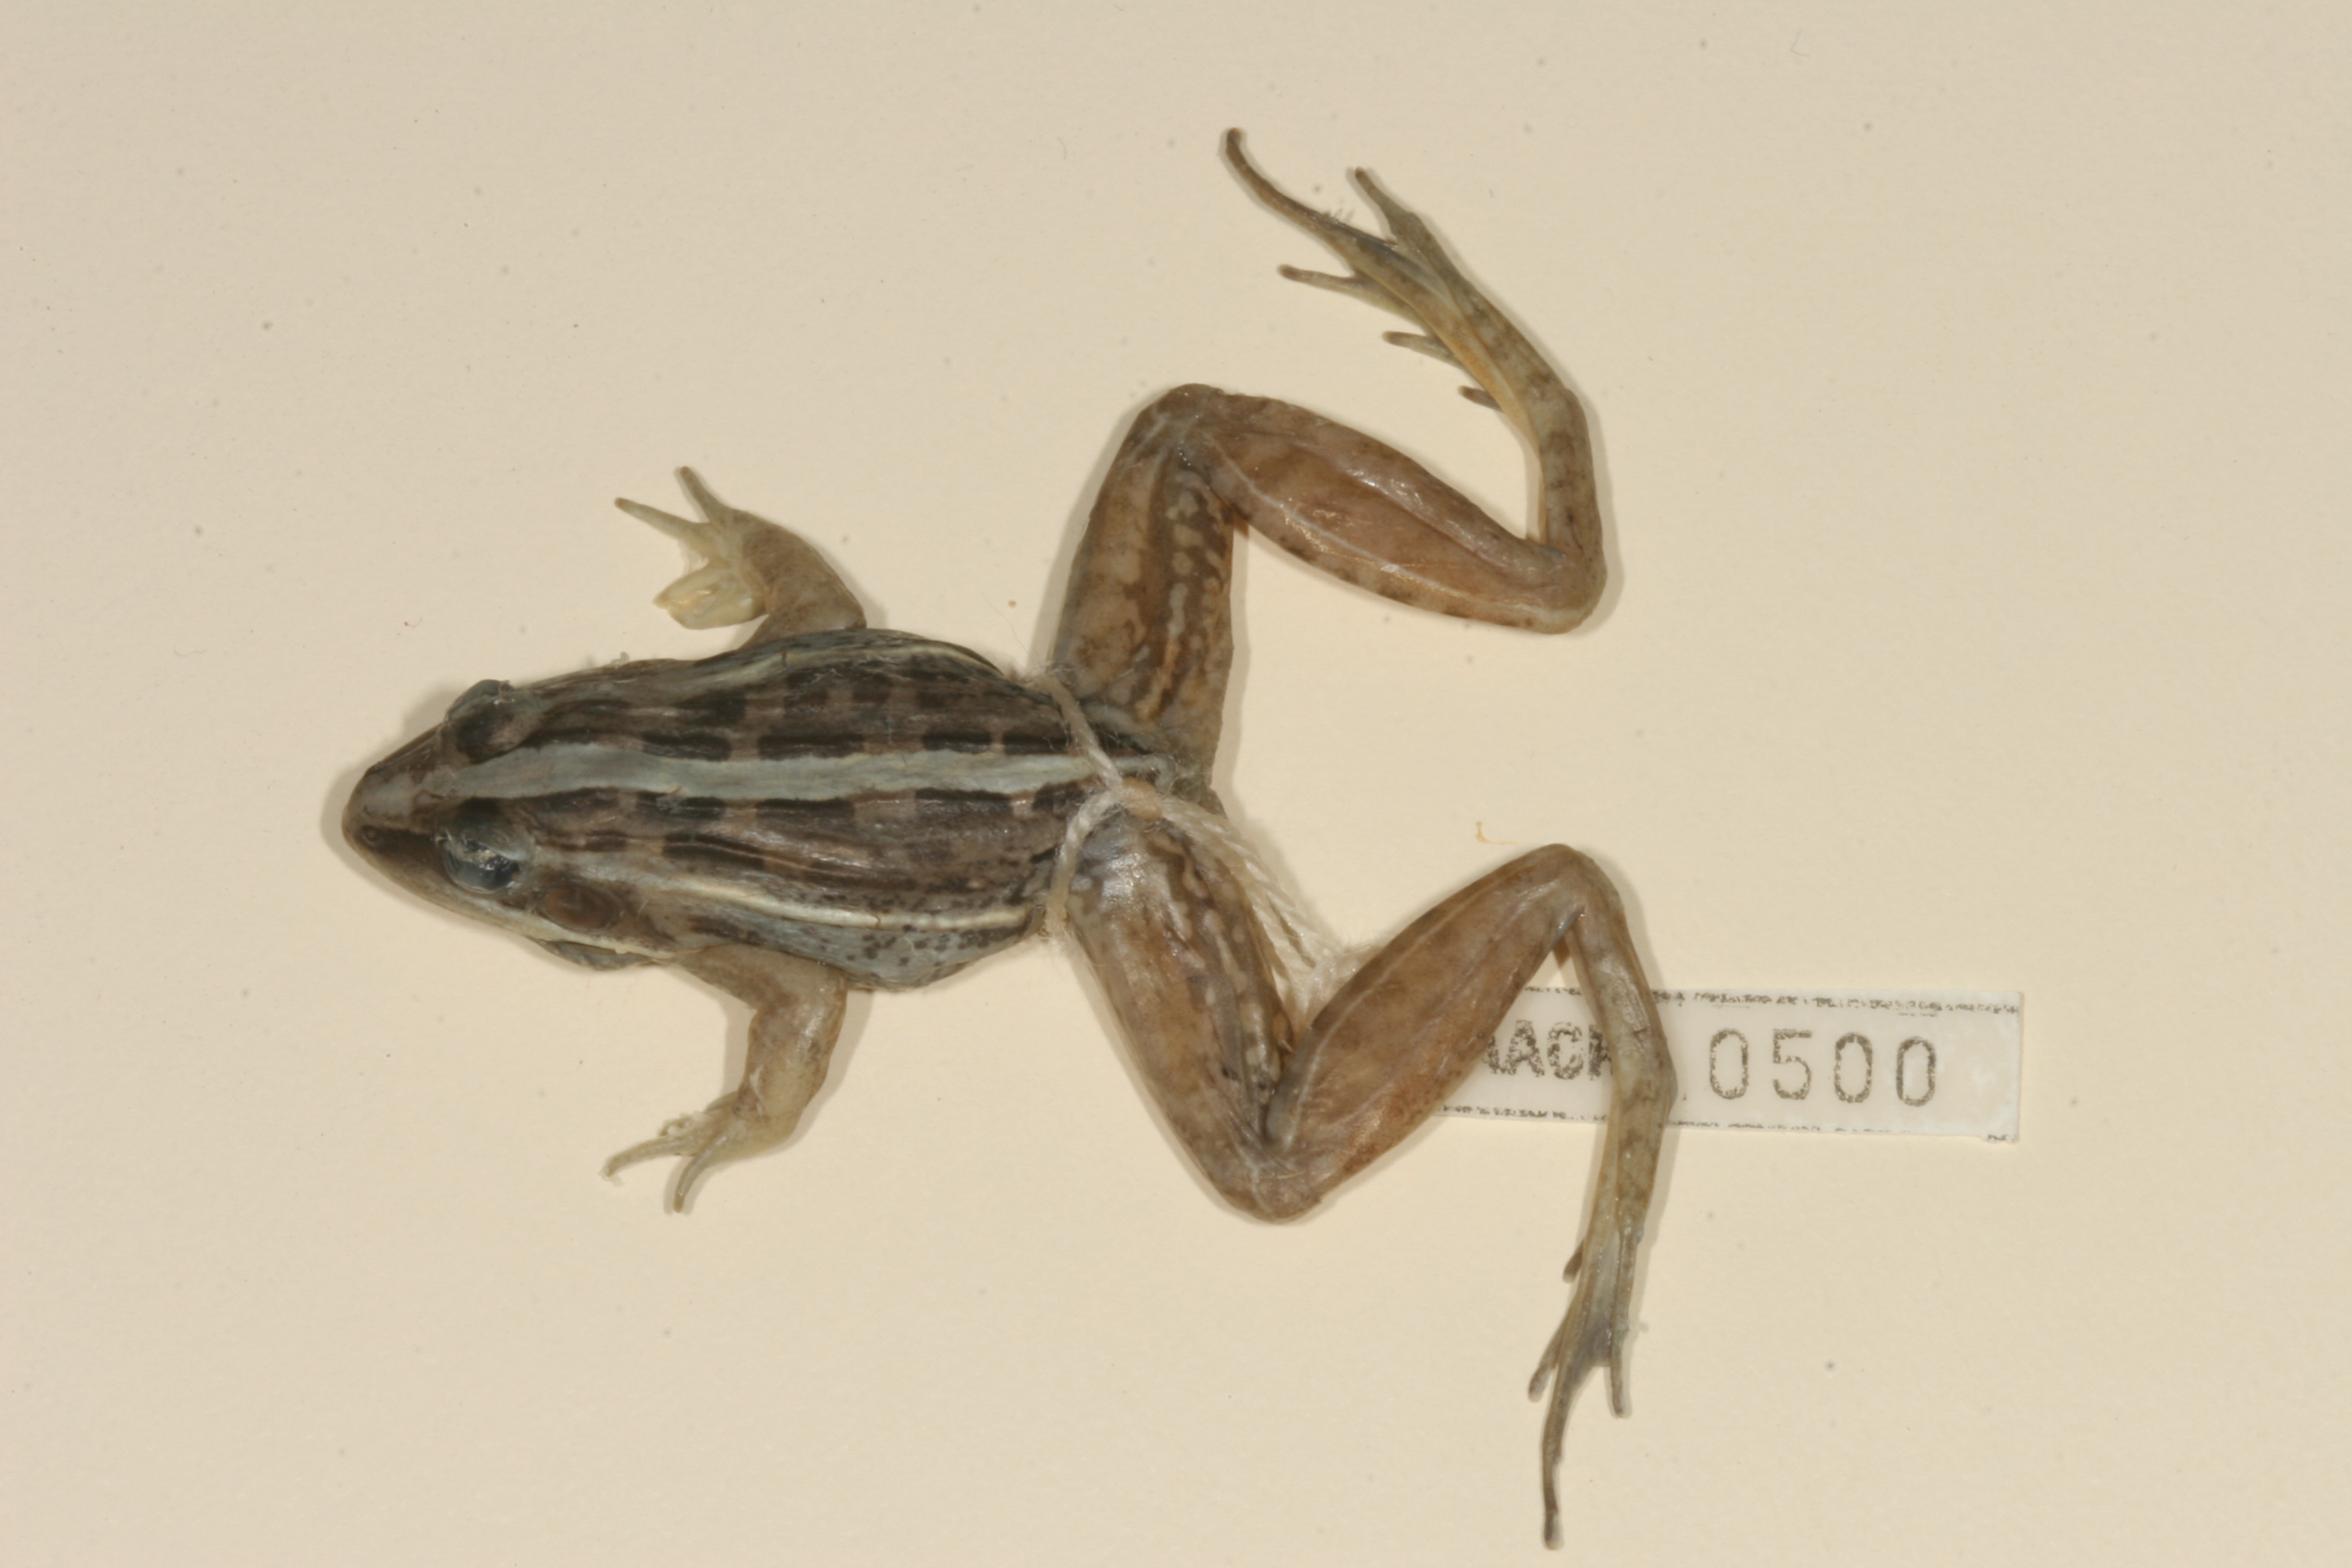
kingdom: Animalia
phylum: Chordata
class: Amphibia
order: Anura
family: Ptychadenidae
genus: Ptychadena
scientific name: Ptychadena mascareniensis
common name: Mascarene grass frog
